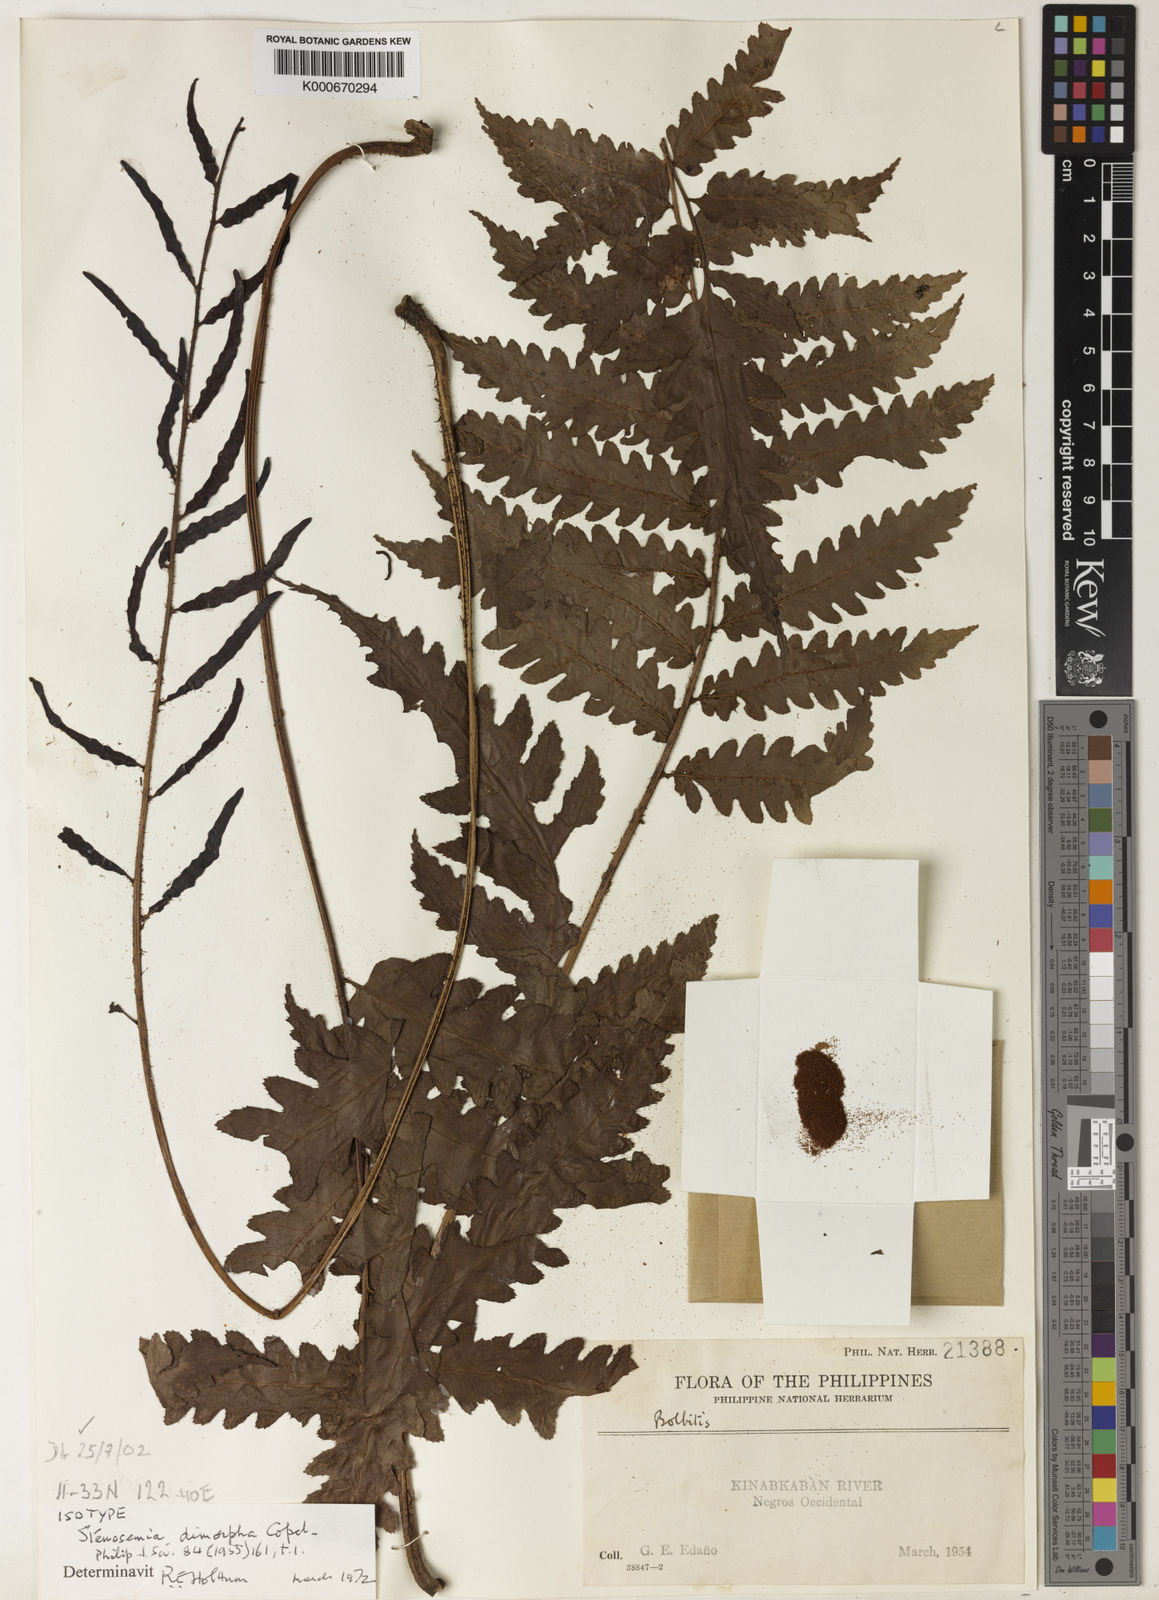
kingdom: Plantae
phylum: Tracheophyta
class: Polypodiopsida
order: Polypodiales
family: Dryopteridaceae
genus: Bolbitis
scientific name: Bolbitis
